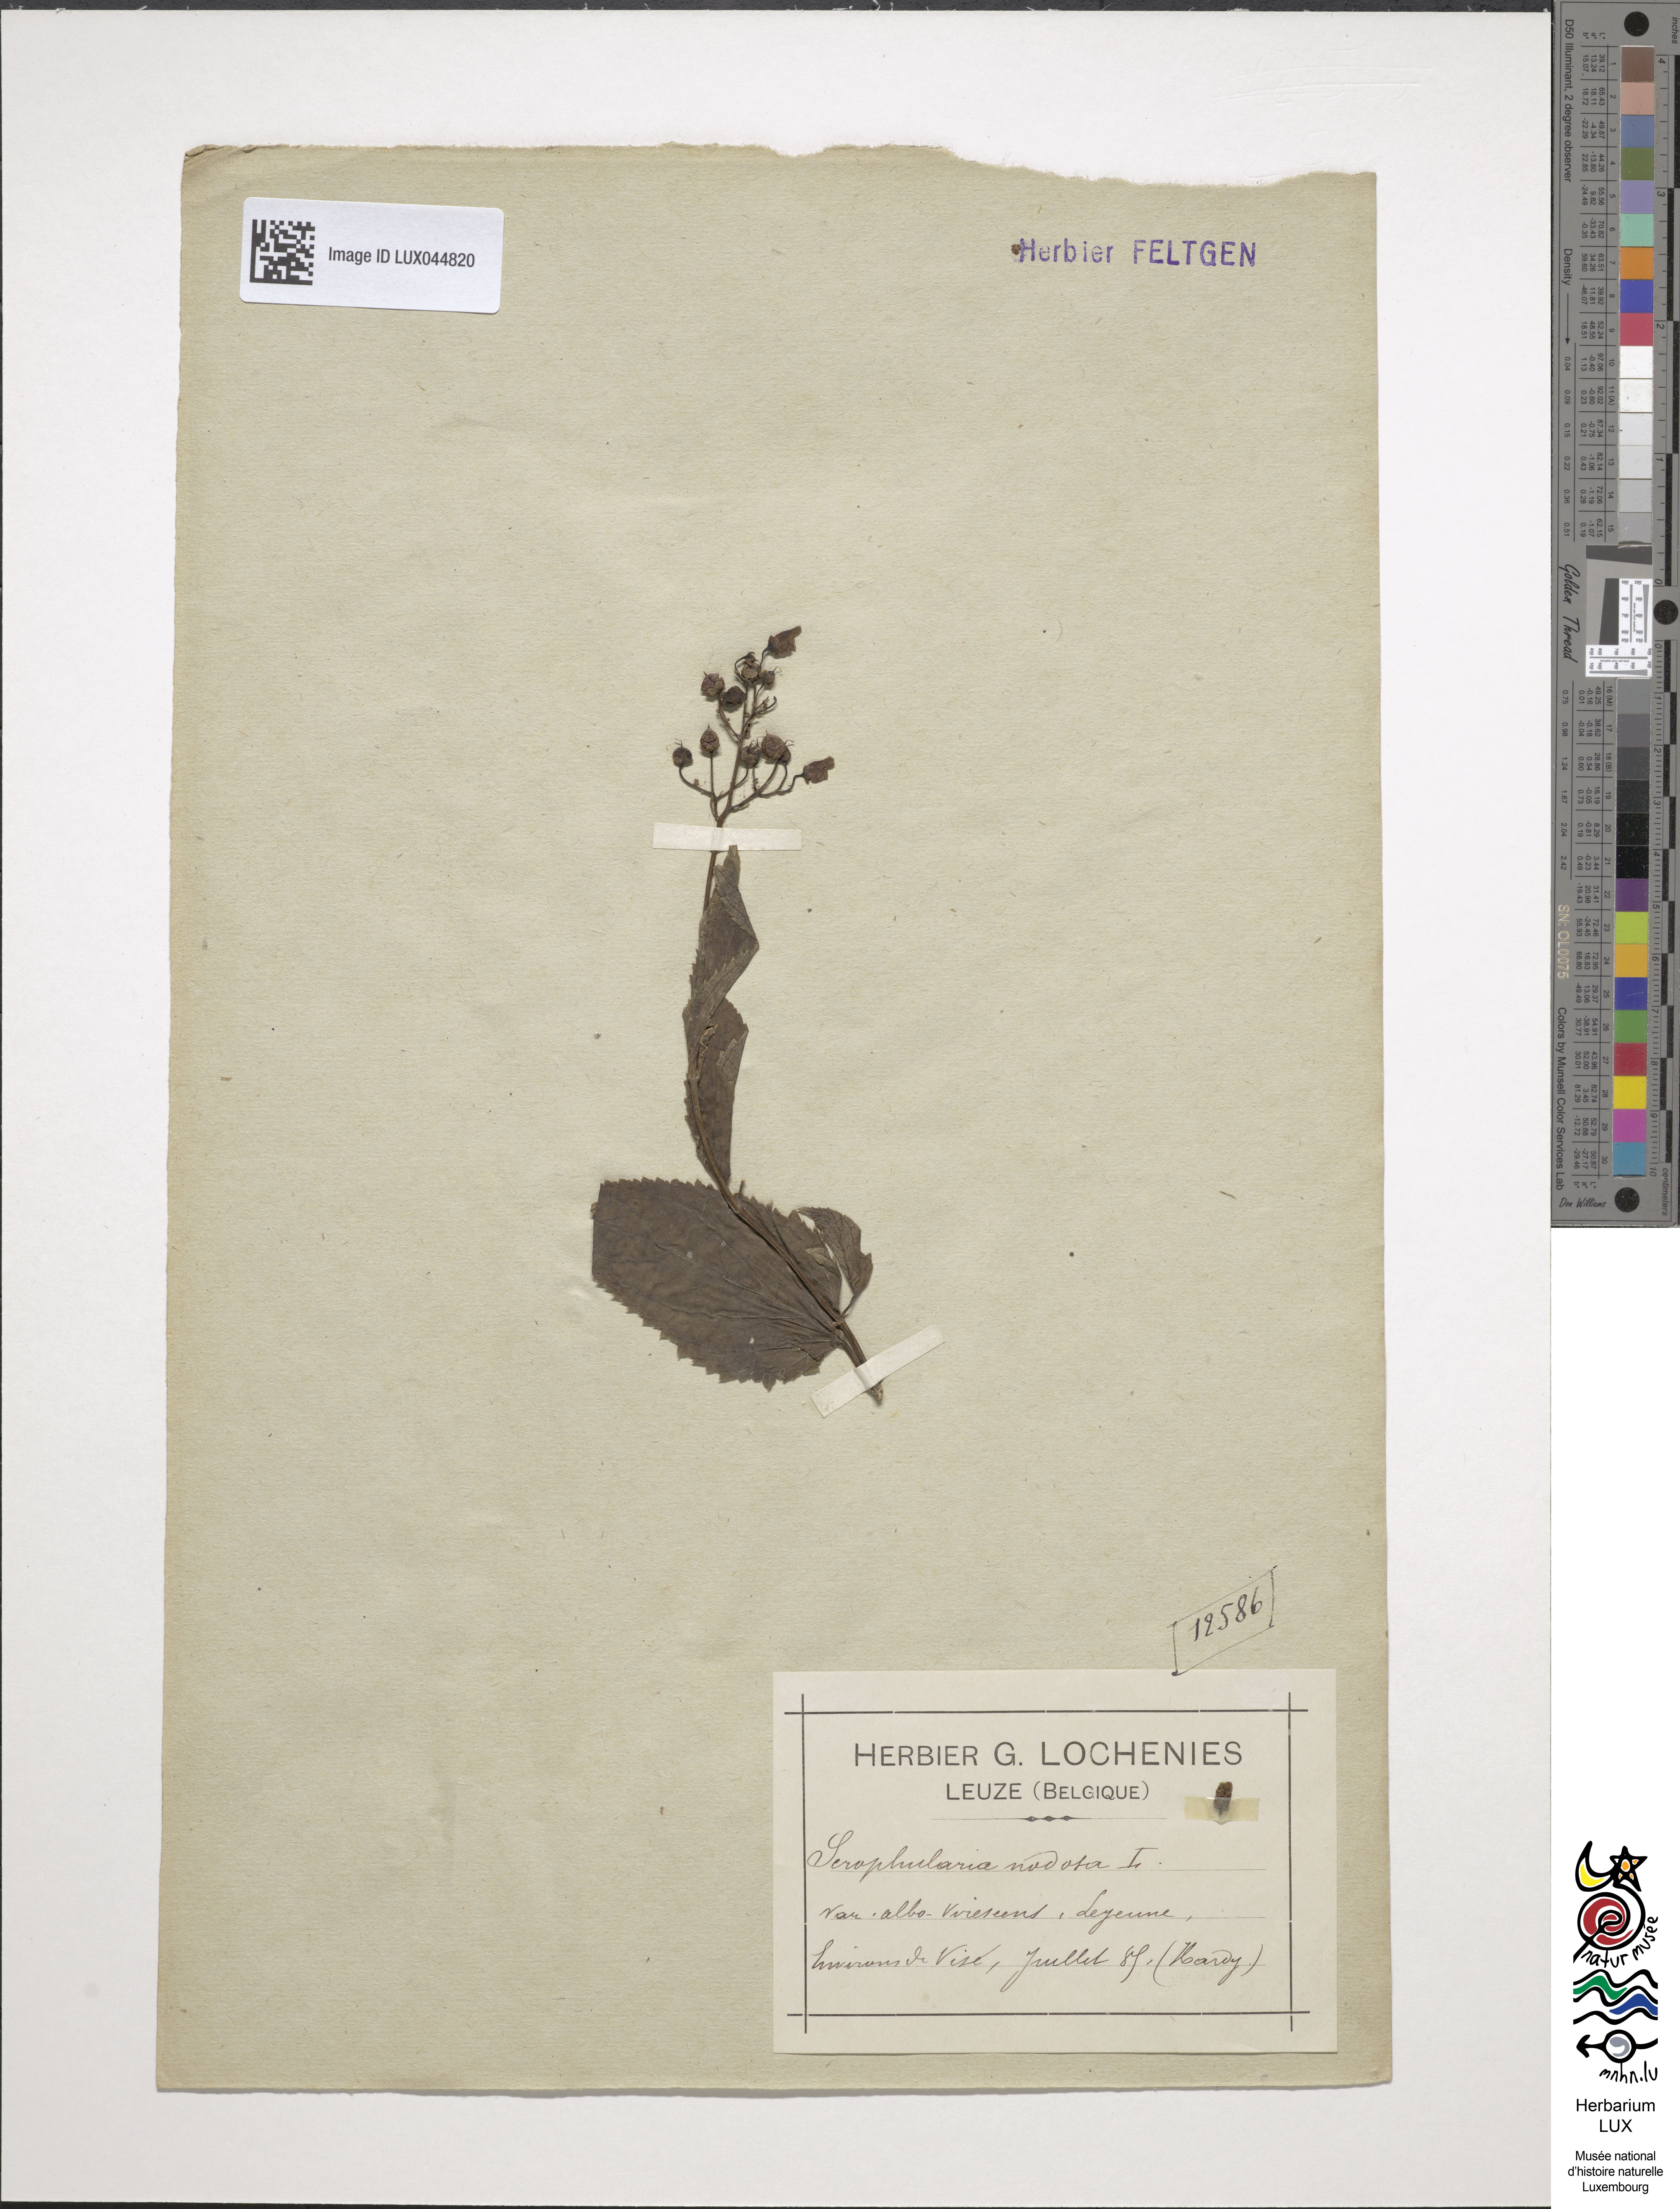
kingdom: Plantae
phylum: Tracheophyta
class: Magnoliopsida
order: Lamiales
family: Scrophulariaceae
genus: Scrophularia
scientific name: Scrophularia nodosa
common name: Common figwort
